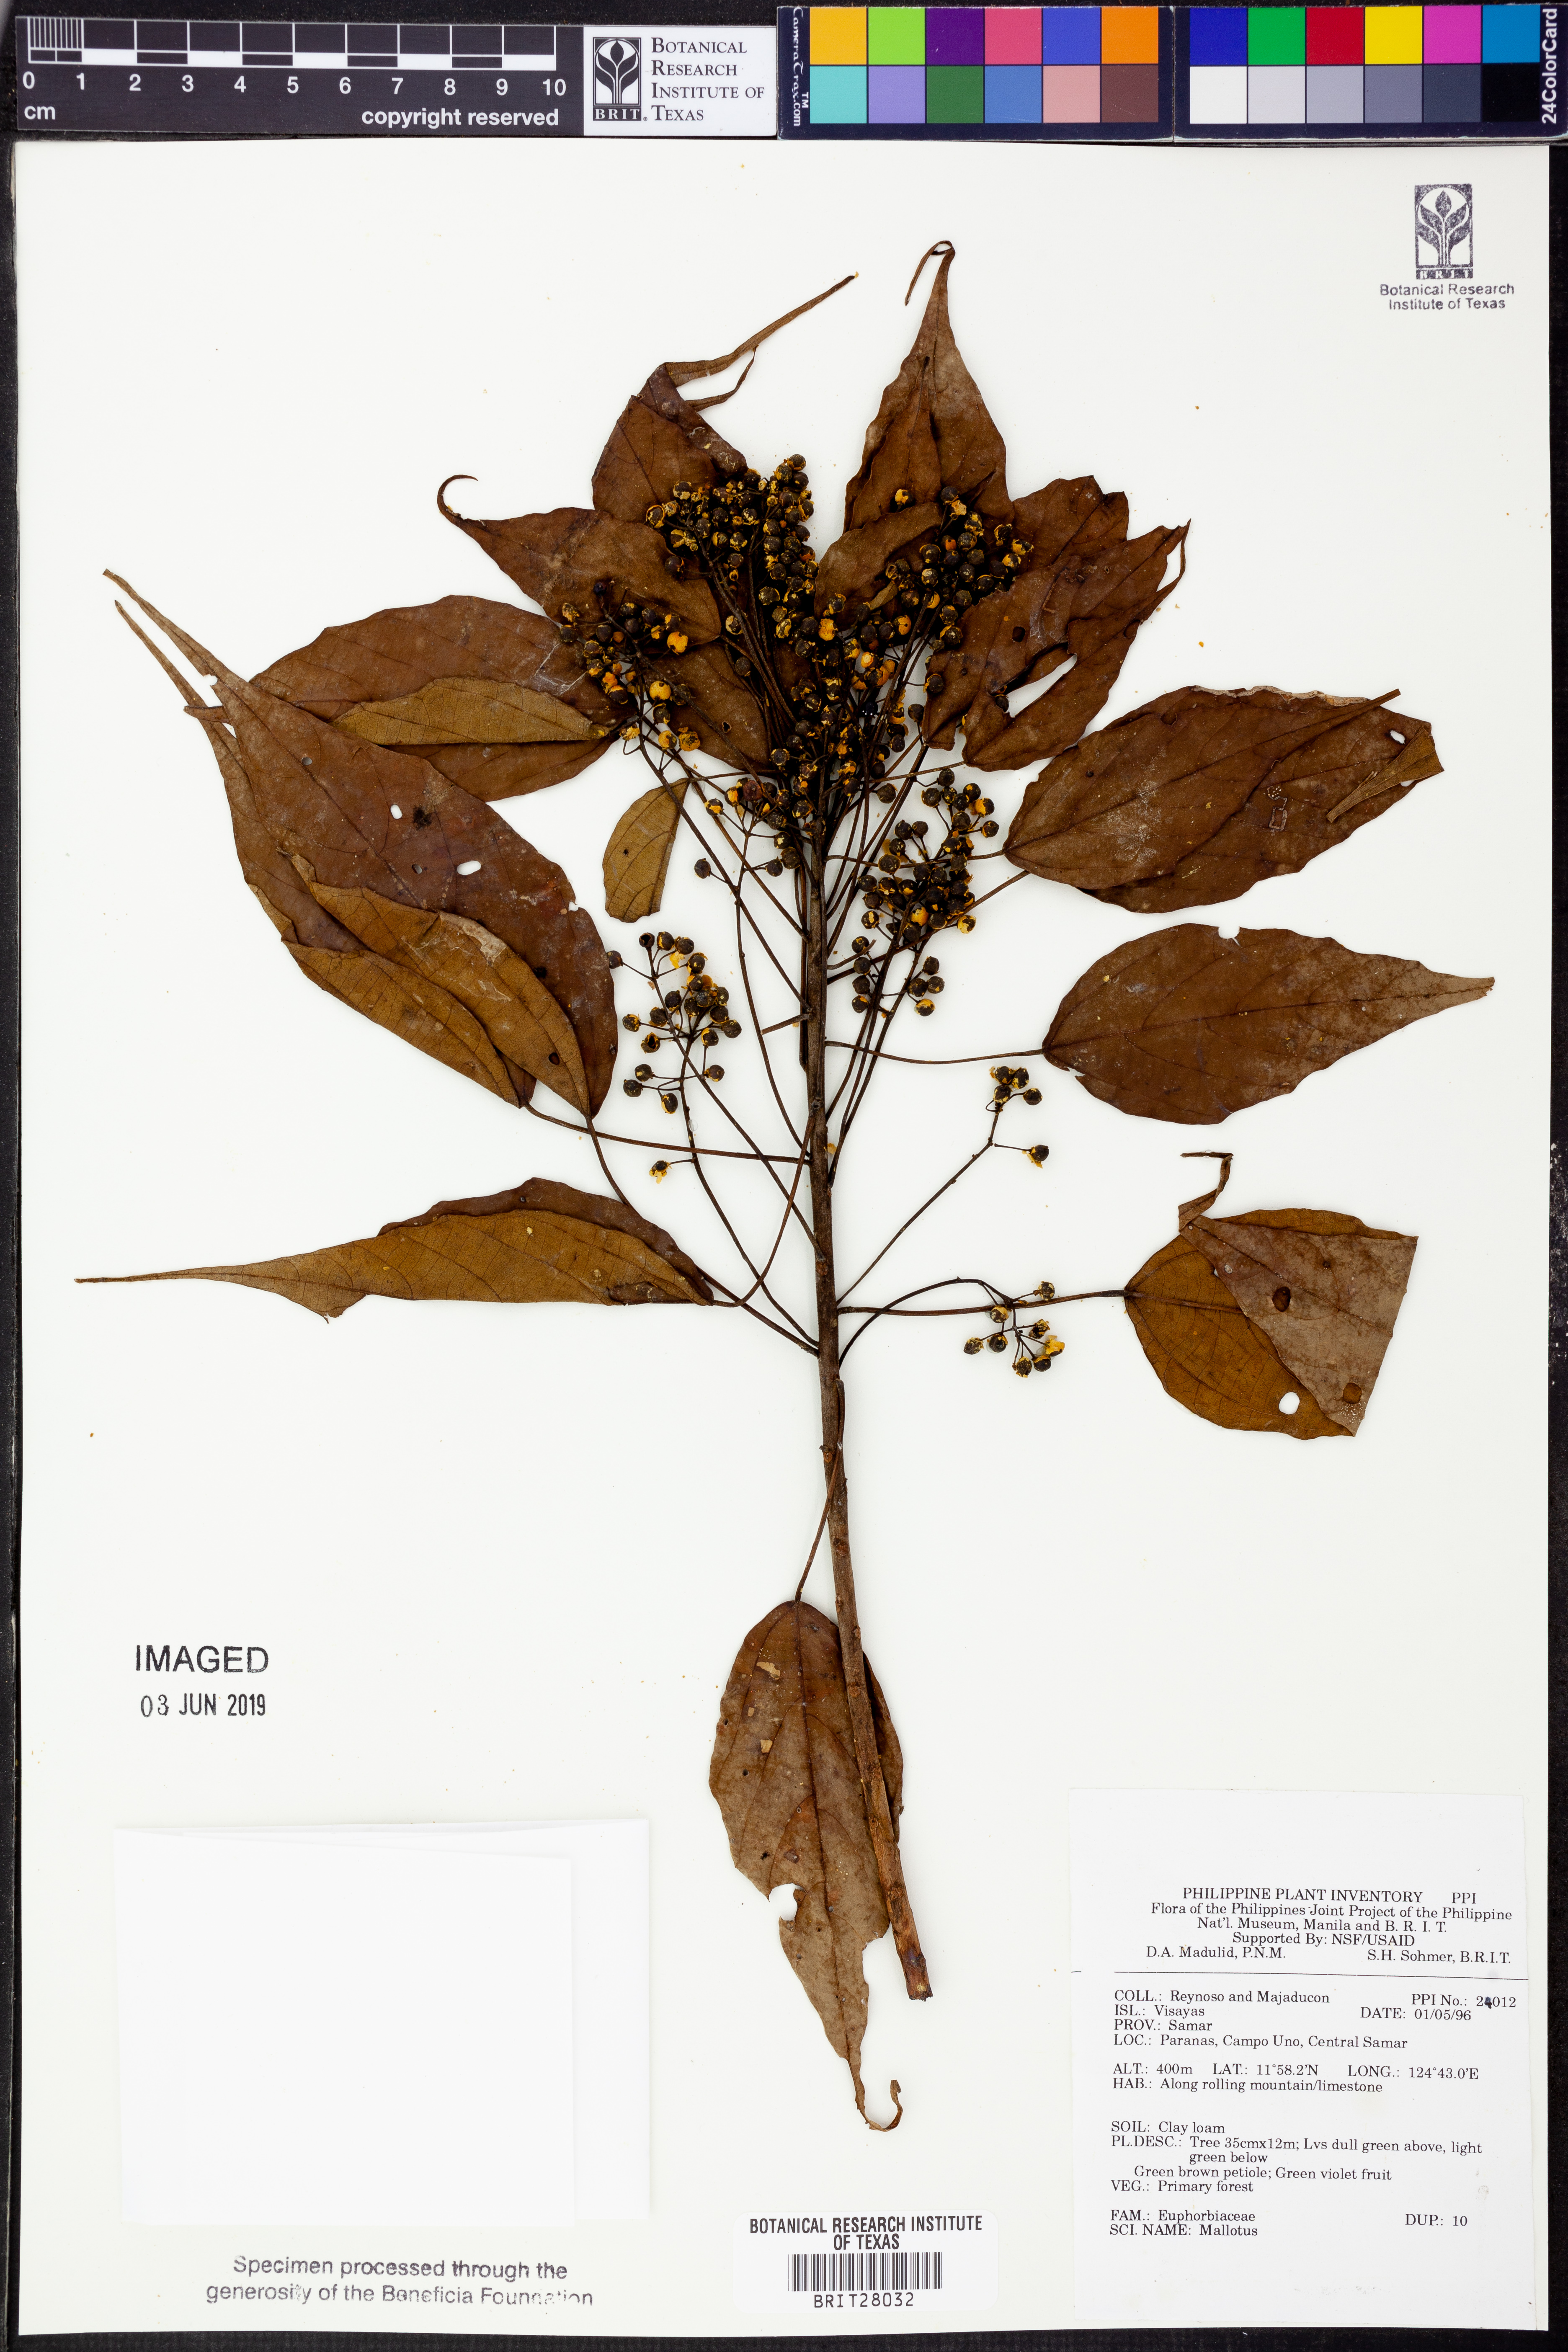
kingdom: Plantae
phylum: Tracheophyta
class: Magnoliopsida
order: Malpighiales
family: Euphorbiaceae
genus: Mallotus
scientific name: Mallotus
